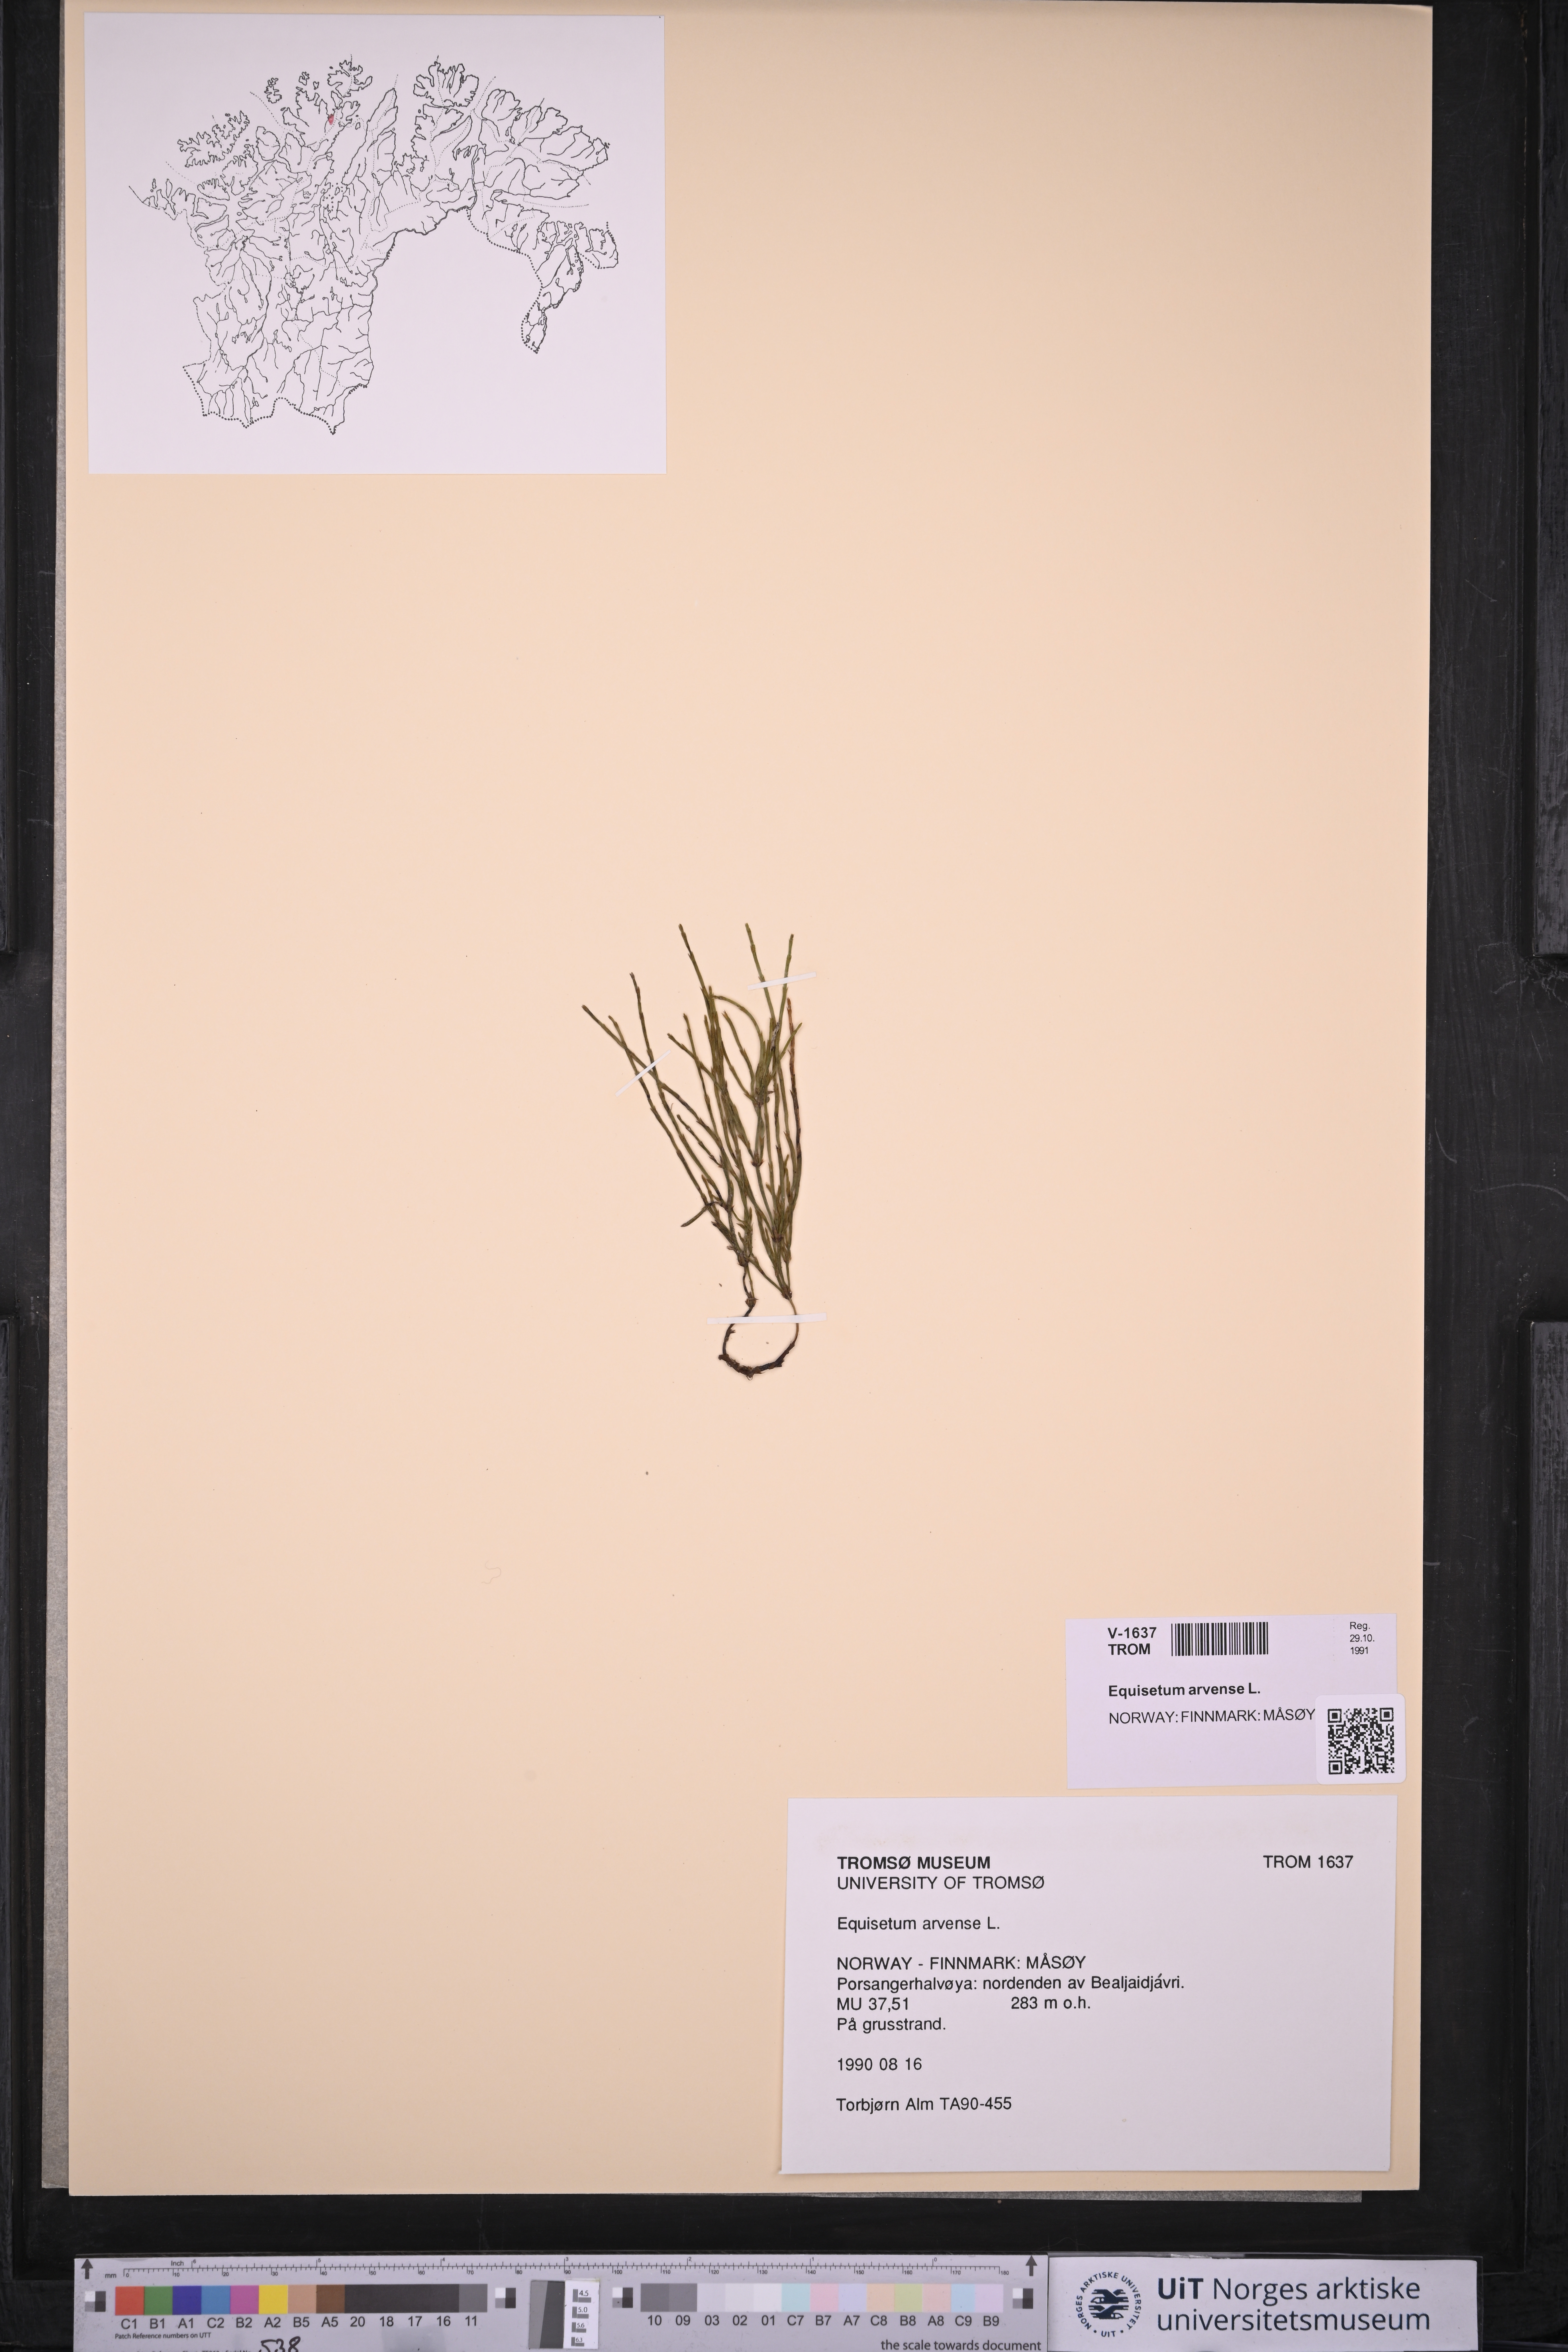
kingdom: Plantae
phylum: Tracheophyta
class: Polypodiopsida
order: Equisetales
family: Equisetaceae
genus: Equisetum
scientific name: Equisetum arvense
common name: Field horsetail
